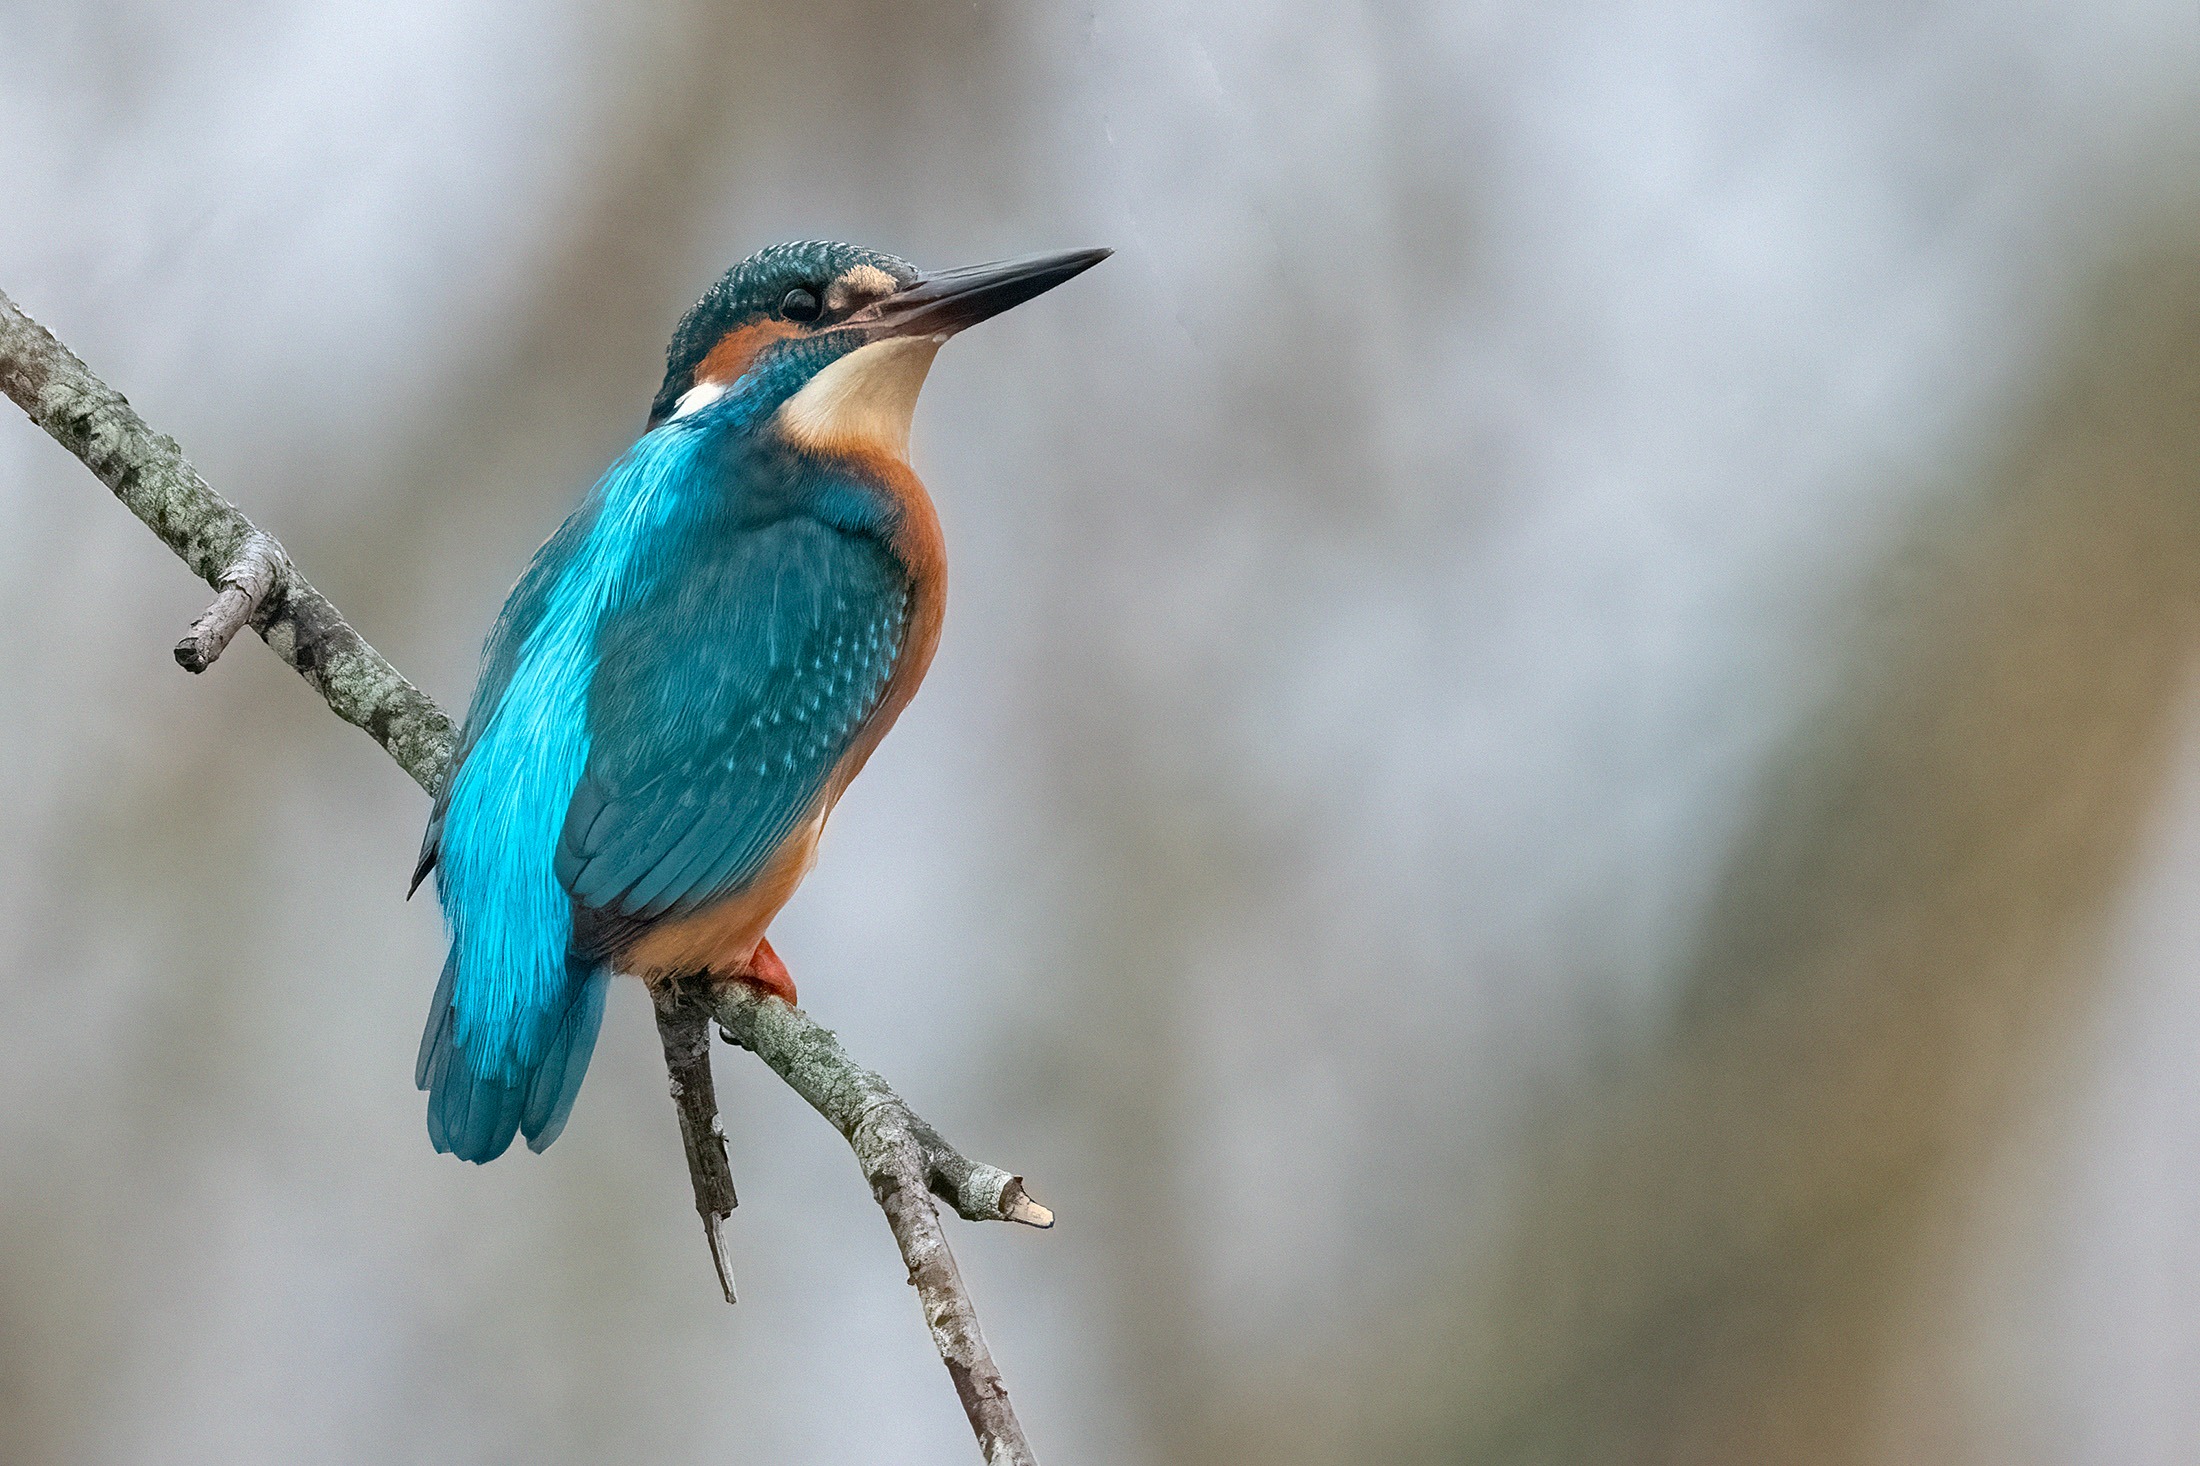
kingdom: Animalia
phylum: Chordata
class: Aves
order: Coraciiformes
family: Alcedinidae
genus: Alcedo
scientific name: Alcedo atthis
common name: Isfugl
